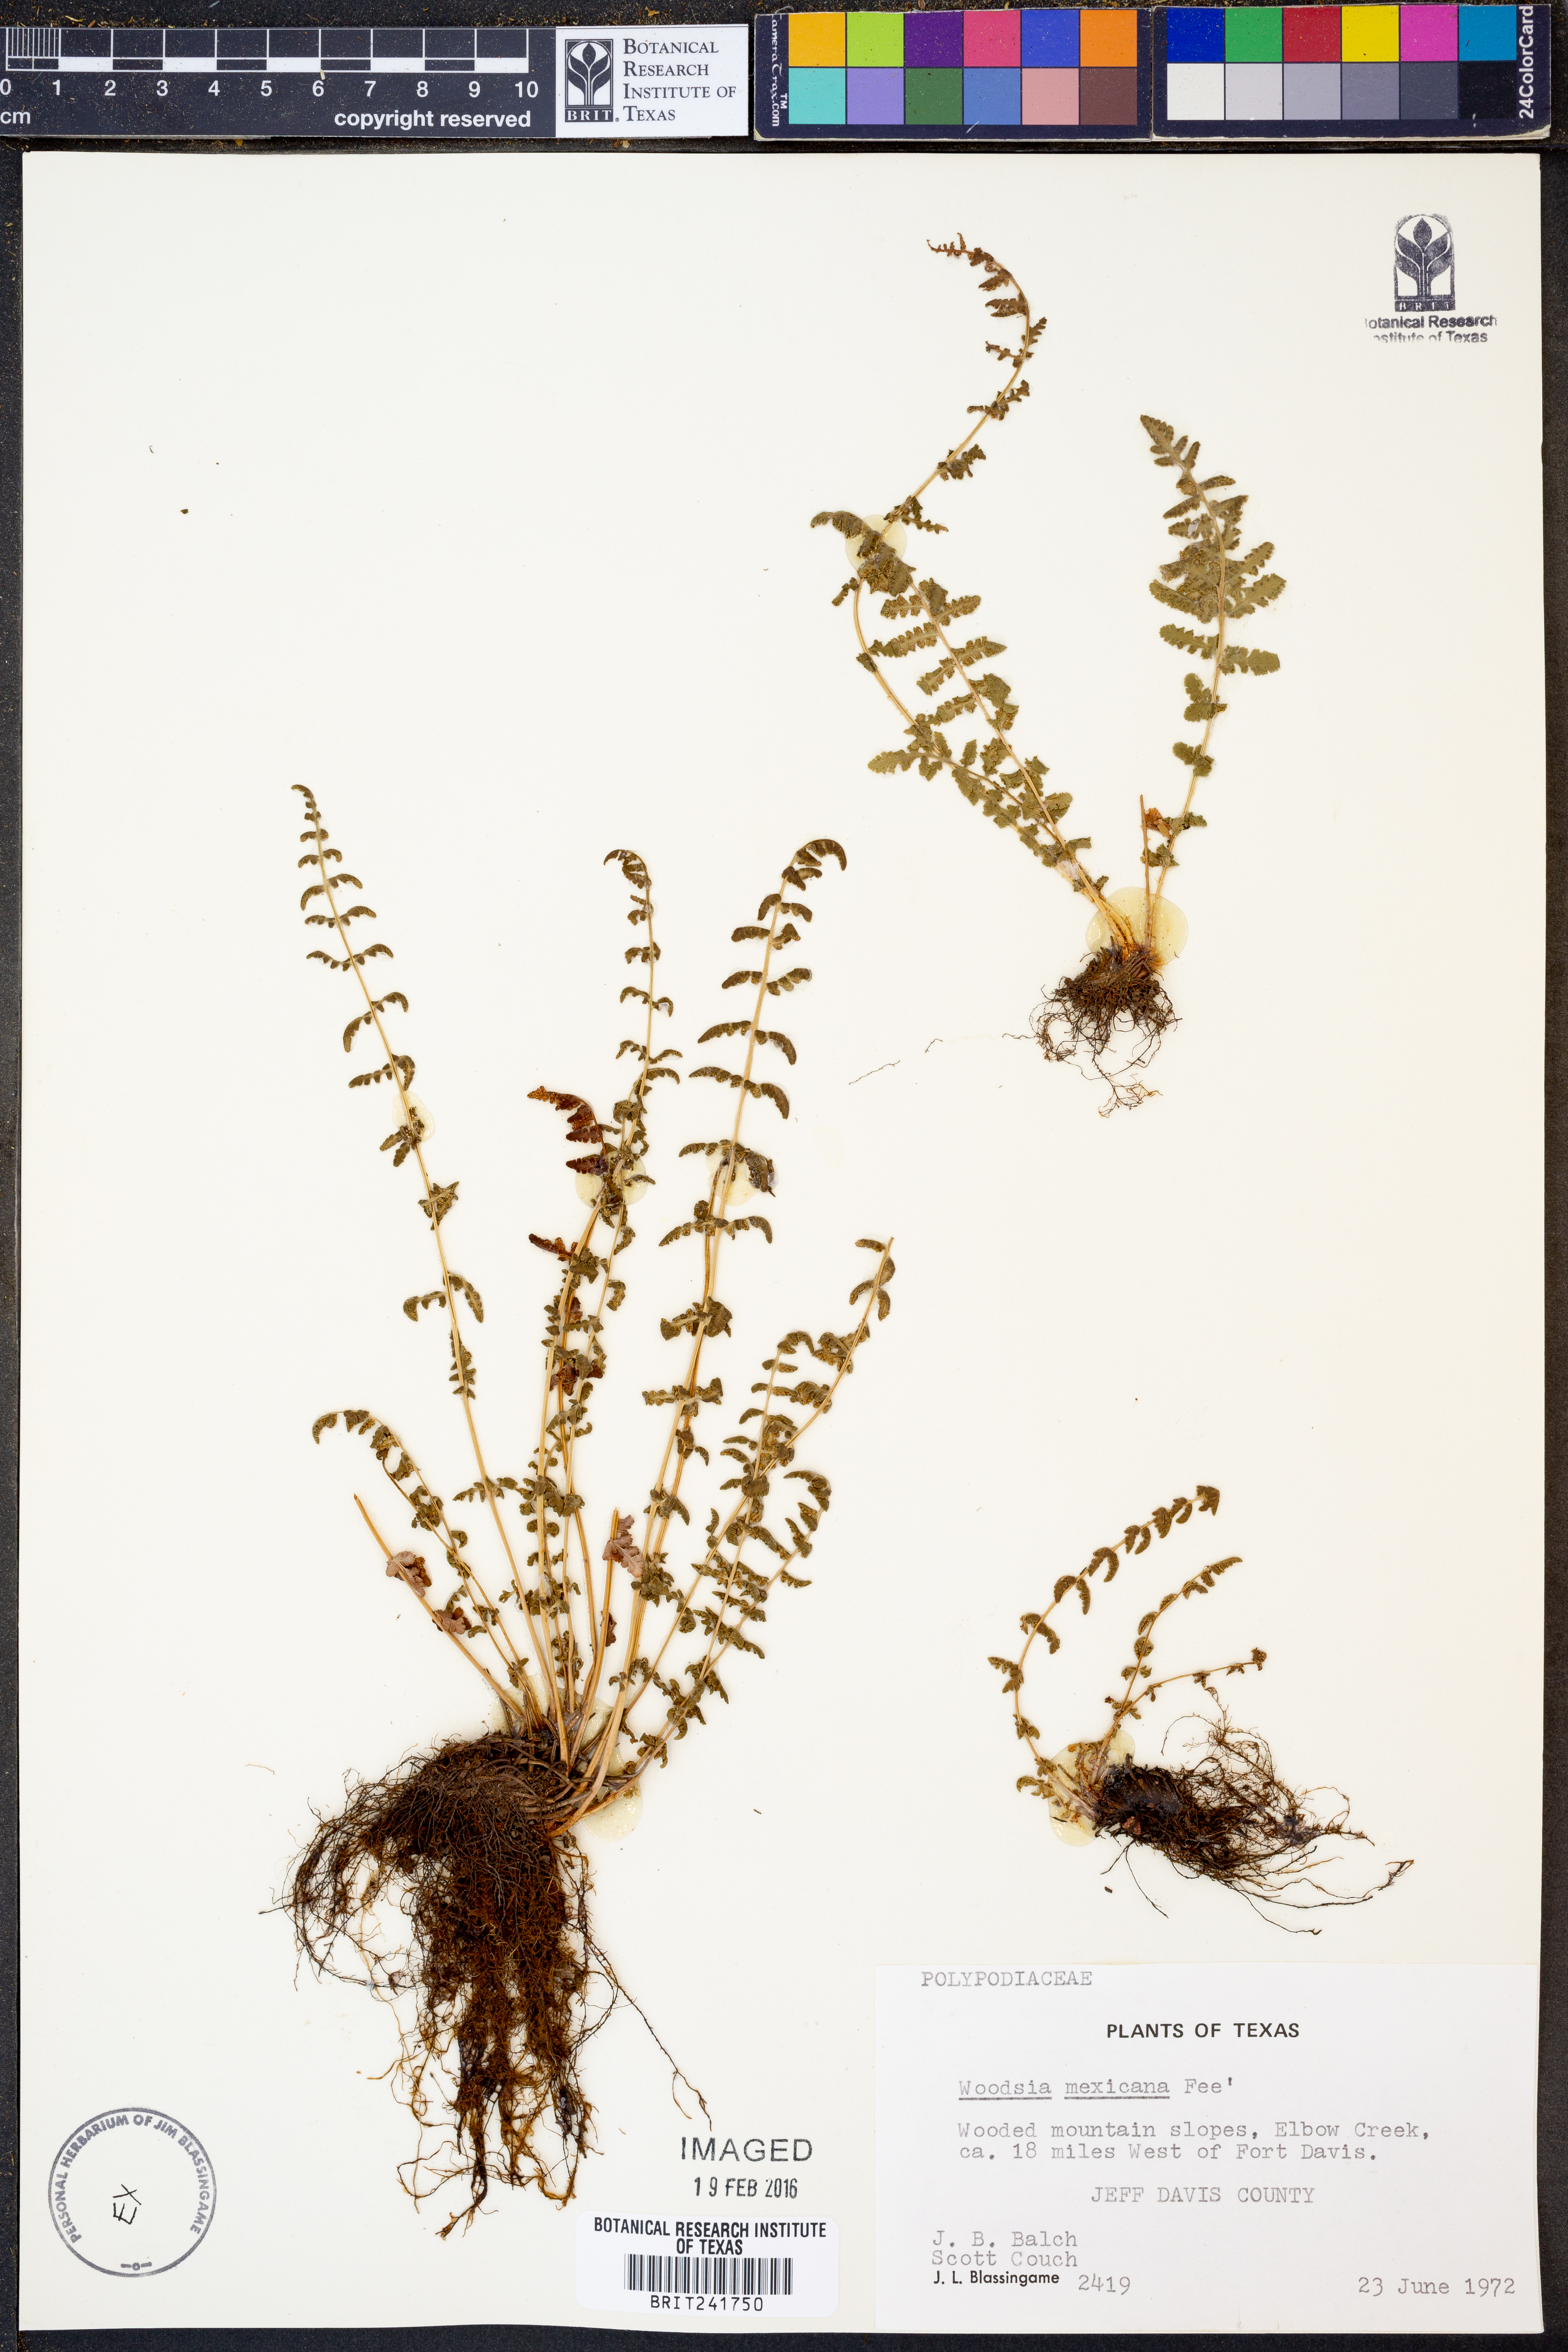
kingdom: Plantae
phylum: Tracheophyta
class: Polypodiopsida
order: Polypodiales
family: Woodsiaceae
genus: Physematium
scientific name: Physematium mexicanum
